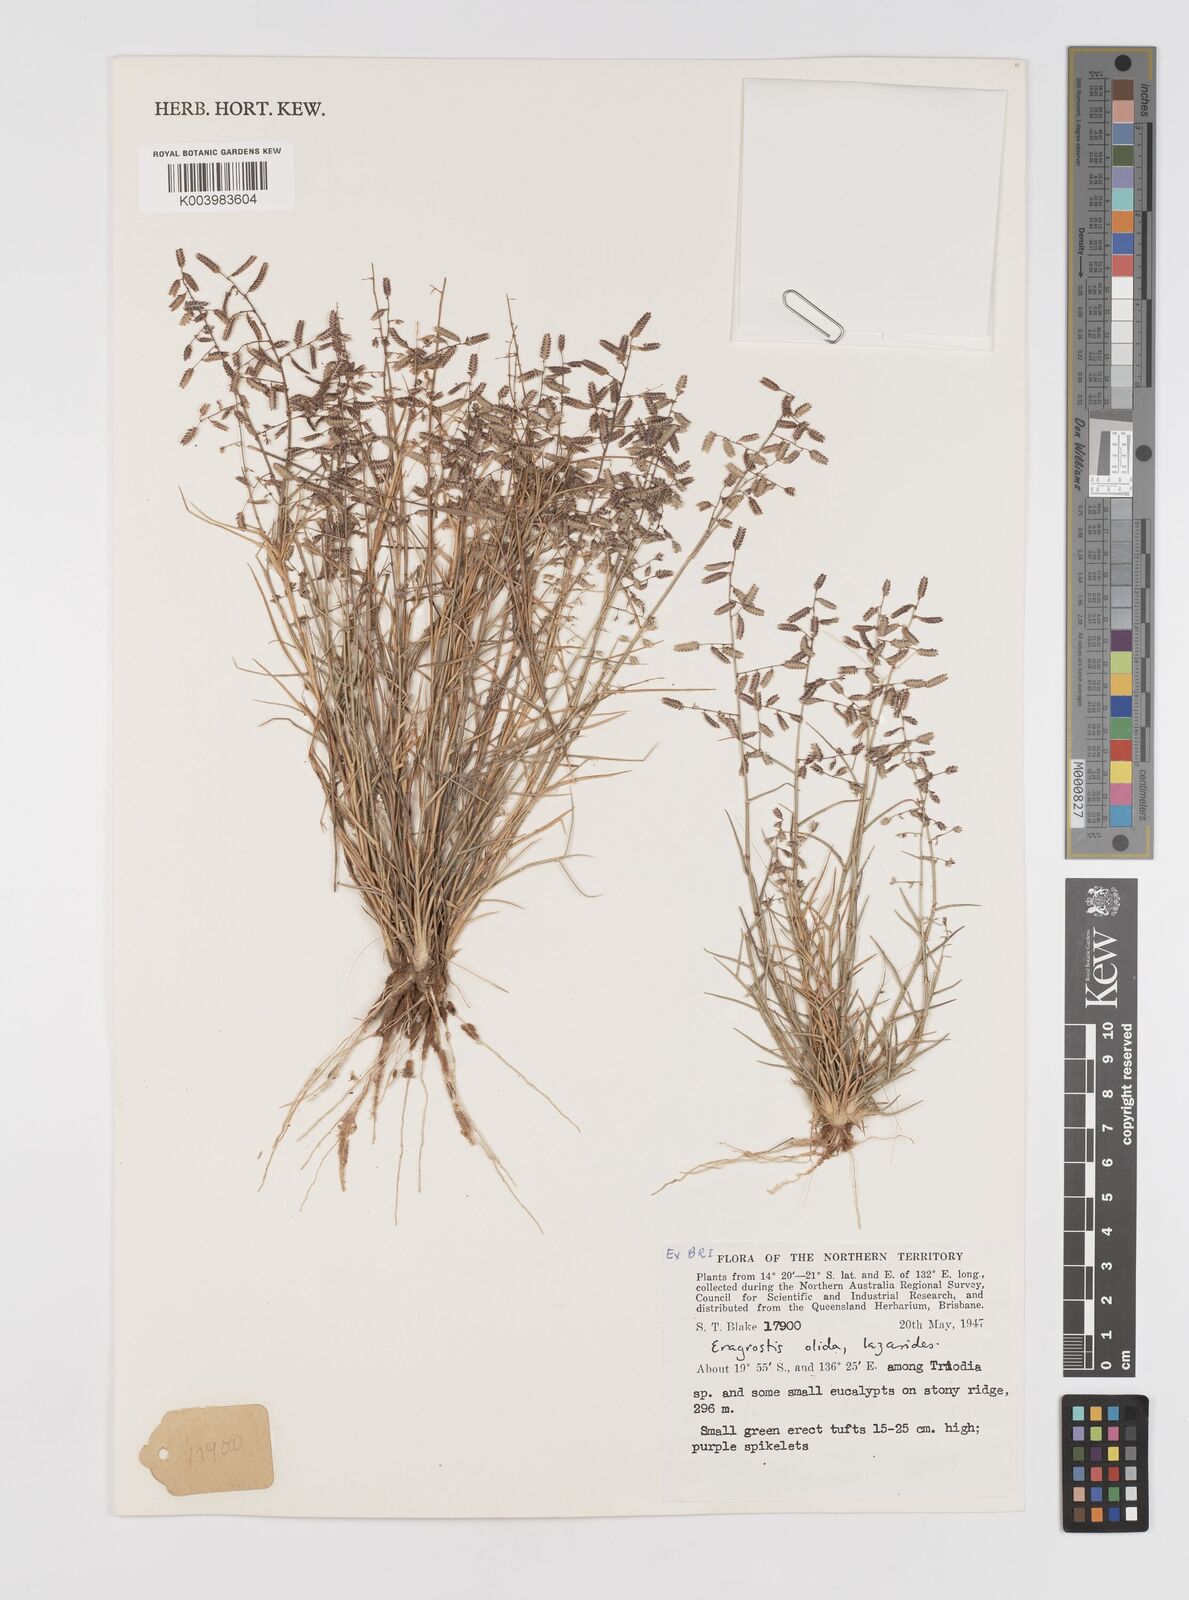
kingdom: Plantae
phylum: Tracheophyta
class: Liliopsida
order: Poales
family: Poaceae
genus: Eragrostis
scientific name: Eragrostis olida
